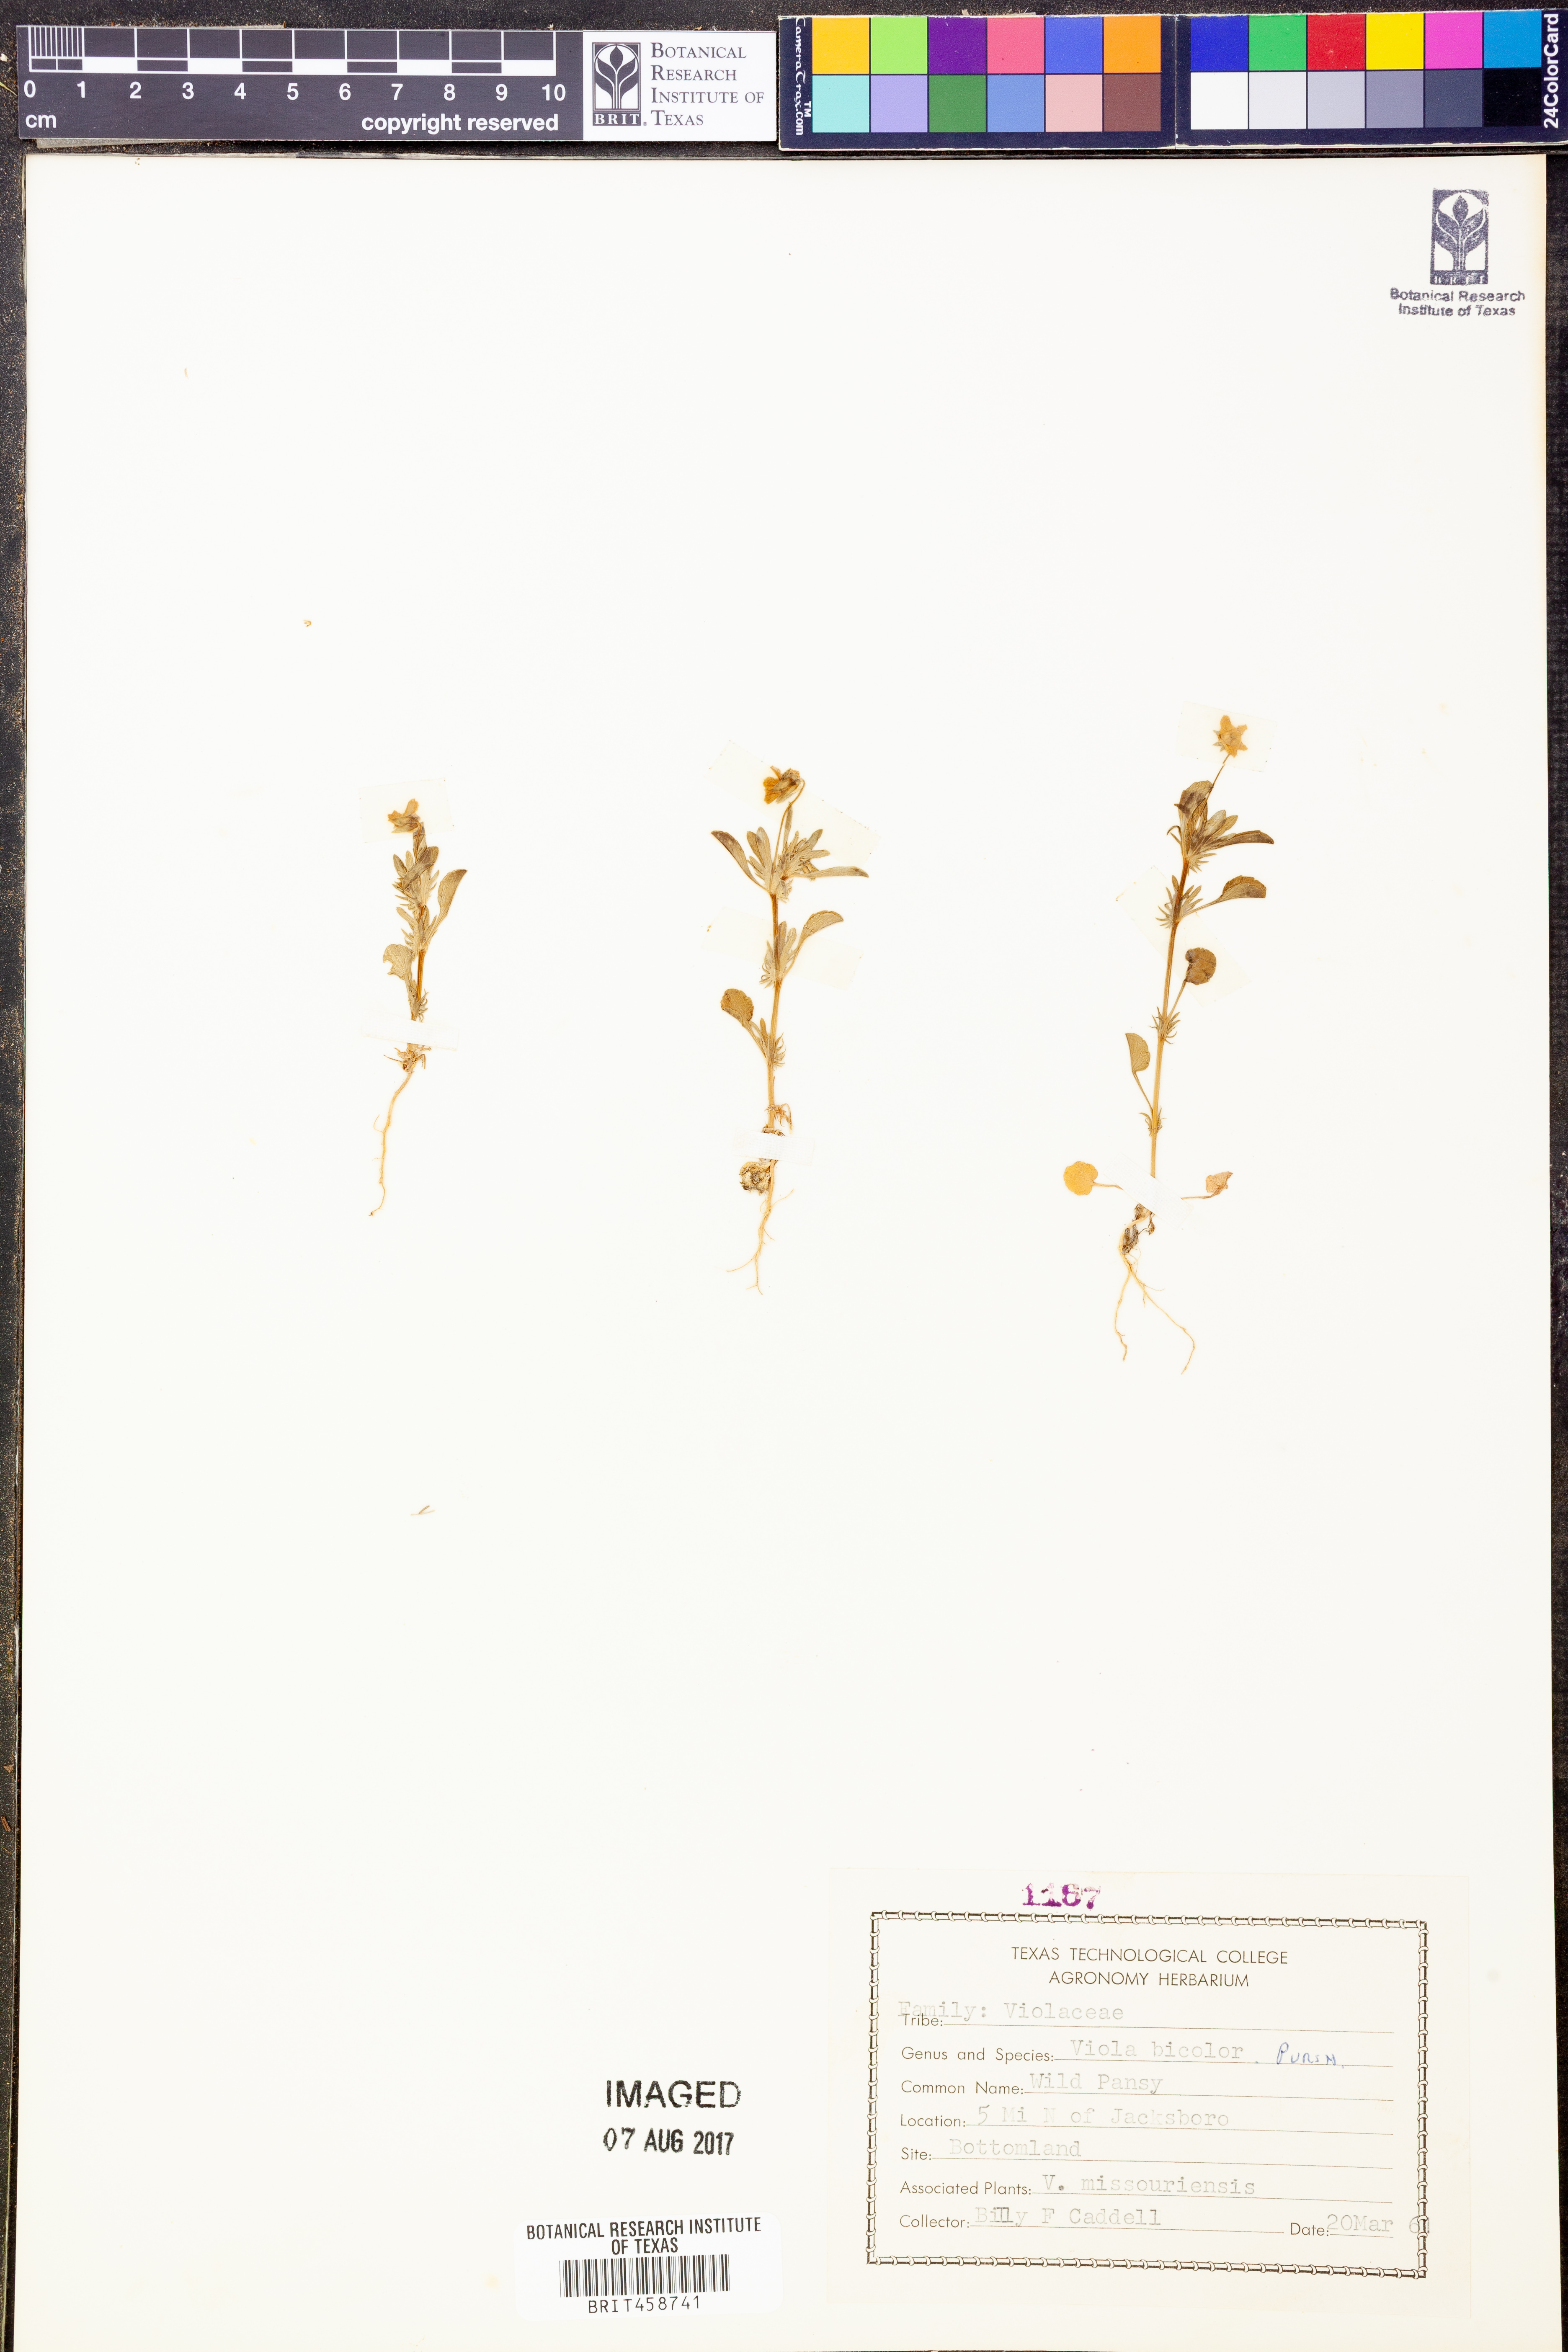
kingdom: Plantae
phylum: Tracheophyta
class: Magnoliopsida
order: Malpighiales
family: Violaceae
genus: Viola
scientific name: Viola rafinesquei
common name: American field pansy
